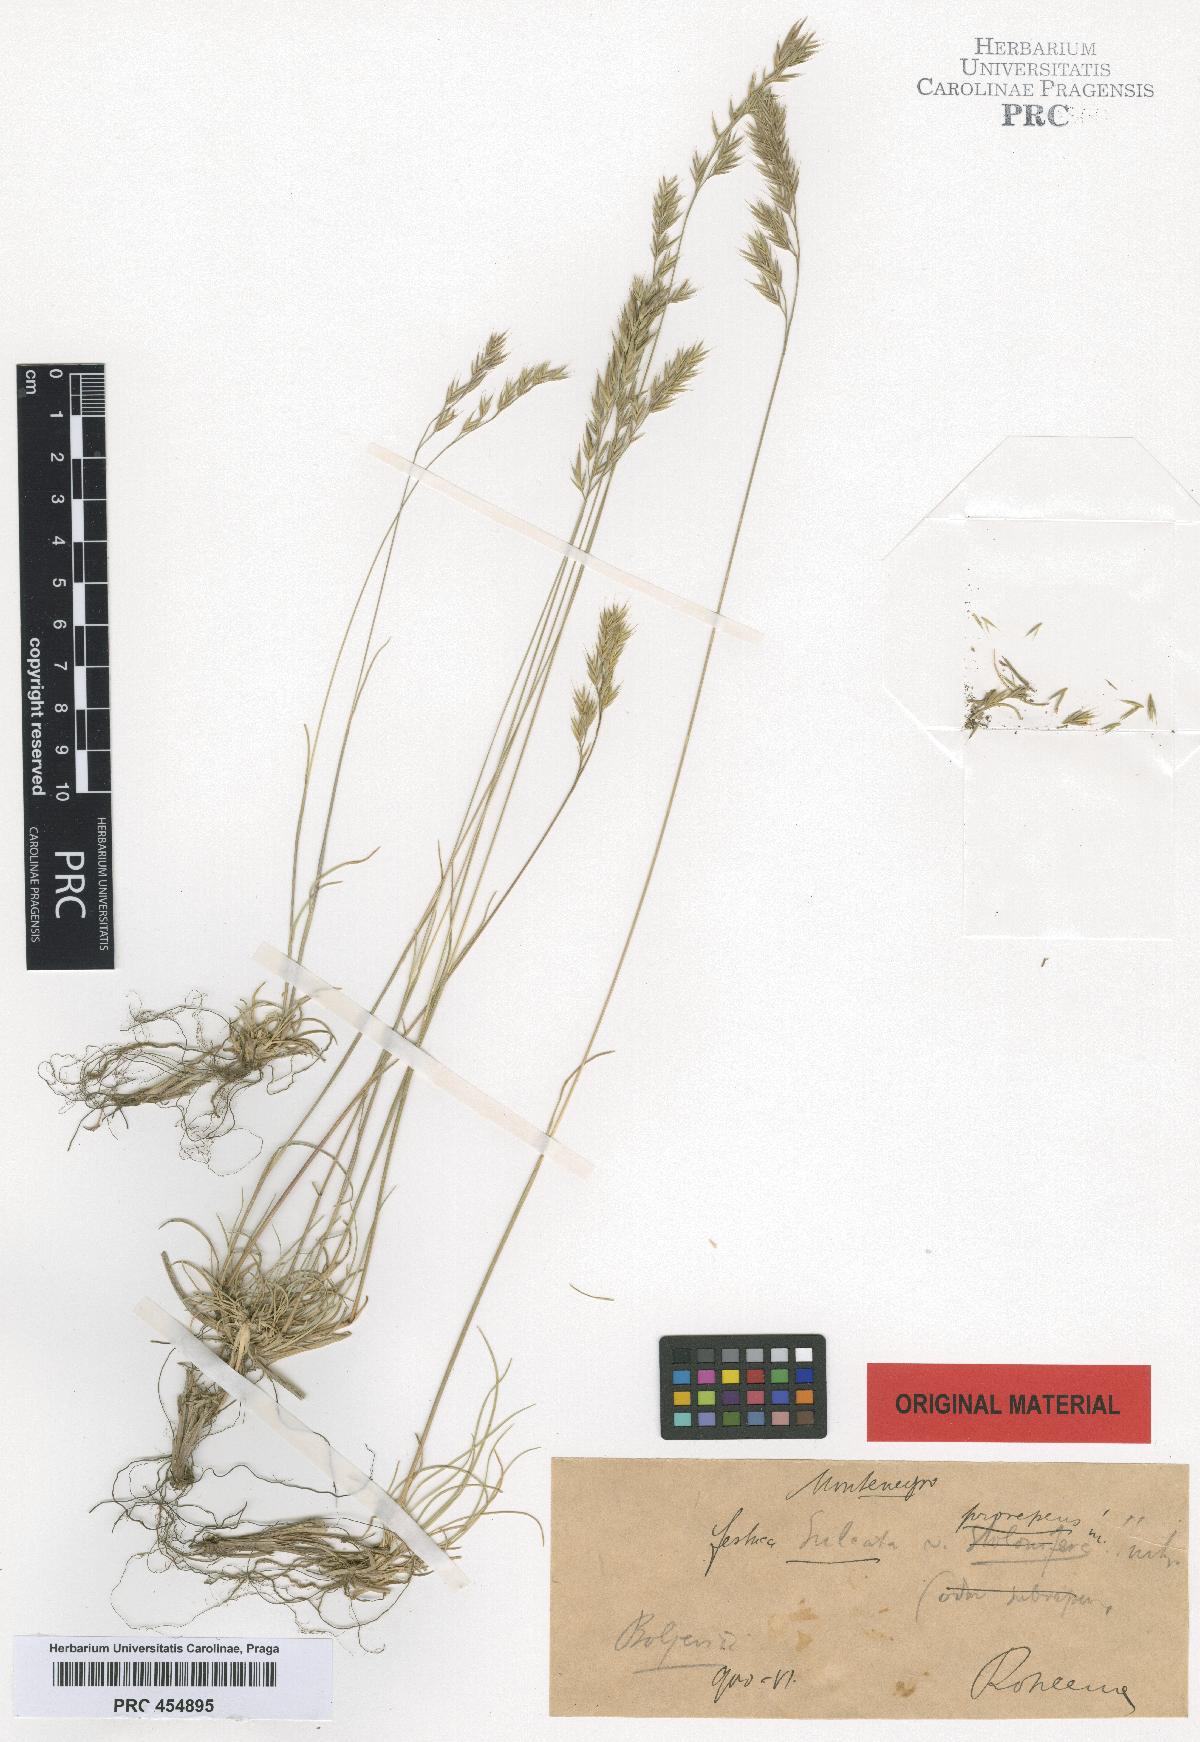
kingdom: Plantae
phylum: Tracheophyta
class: Liliopsida
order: Poales
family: Poaceae
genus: Festuca
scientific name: Festuca rupicola
